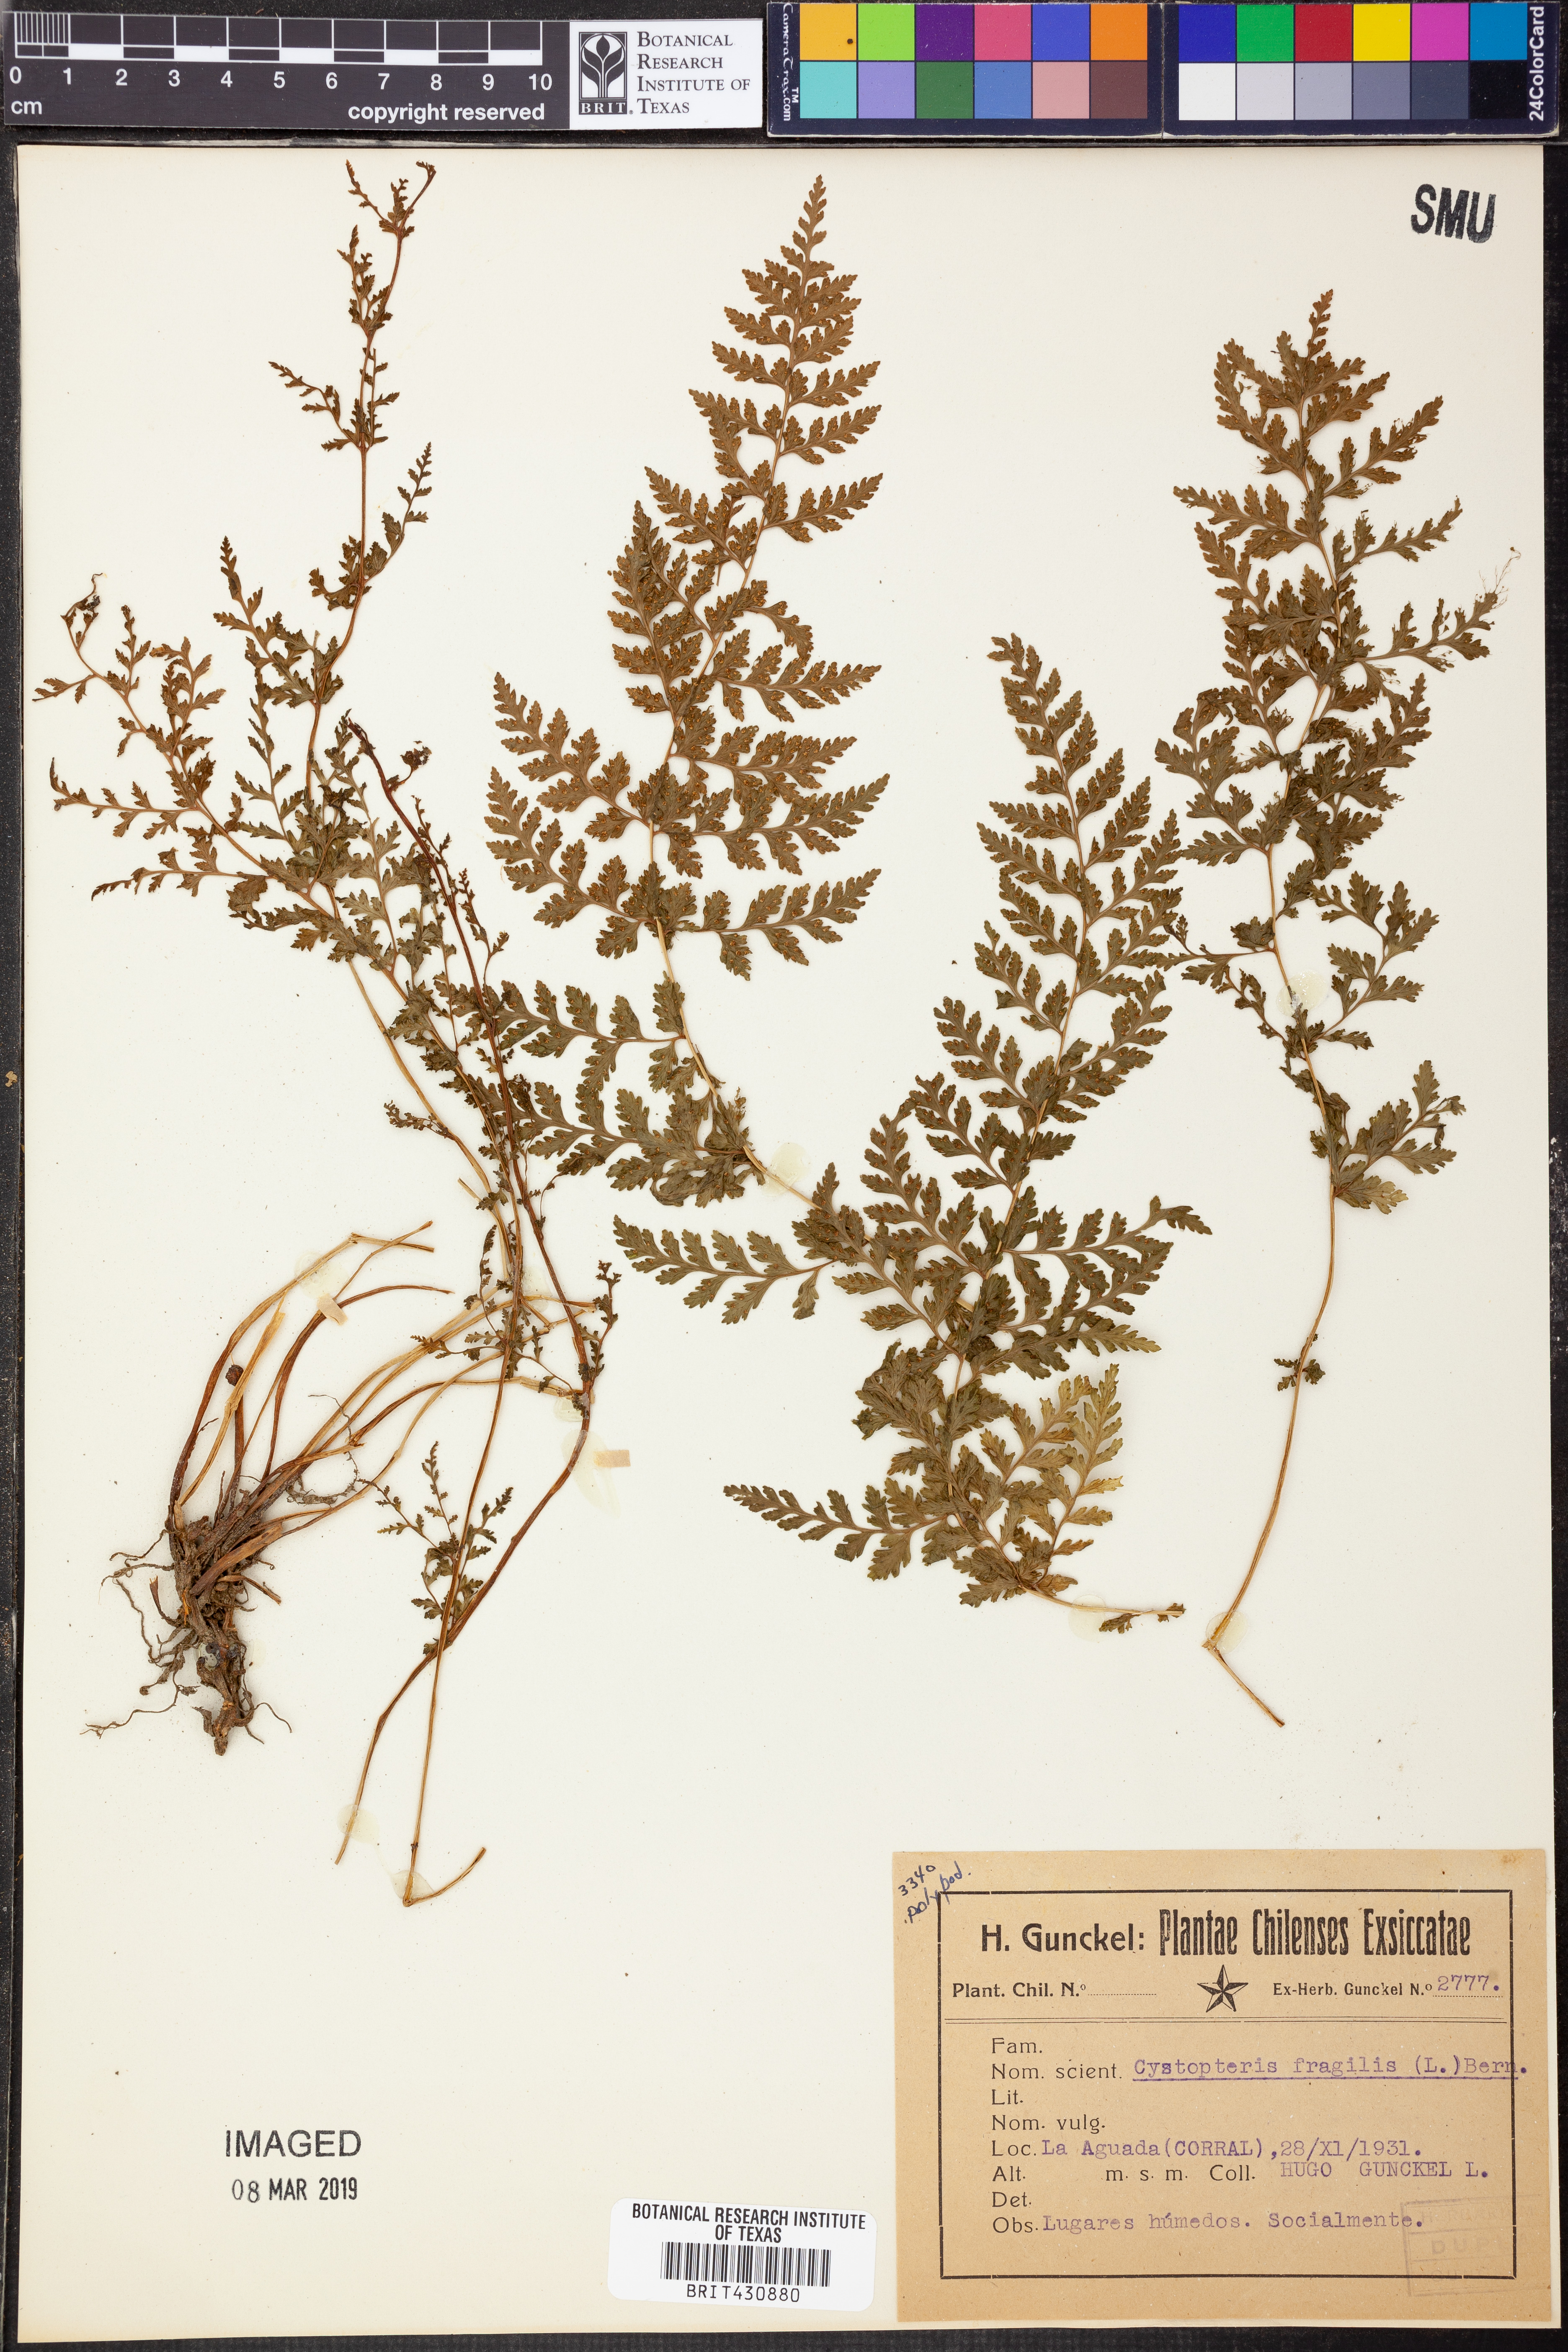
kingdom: Plantae
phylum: Tracheophyta
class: Polypodiopsida
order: Polypodiales
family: Cystopteridaceae
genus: Cystopteris
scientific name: Cystopteris fragilis
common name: Brittle bladder fern
